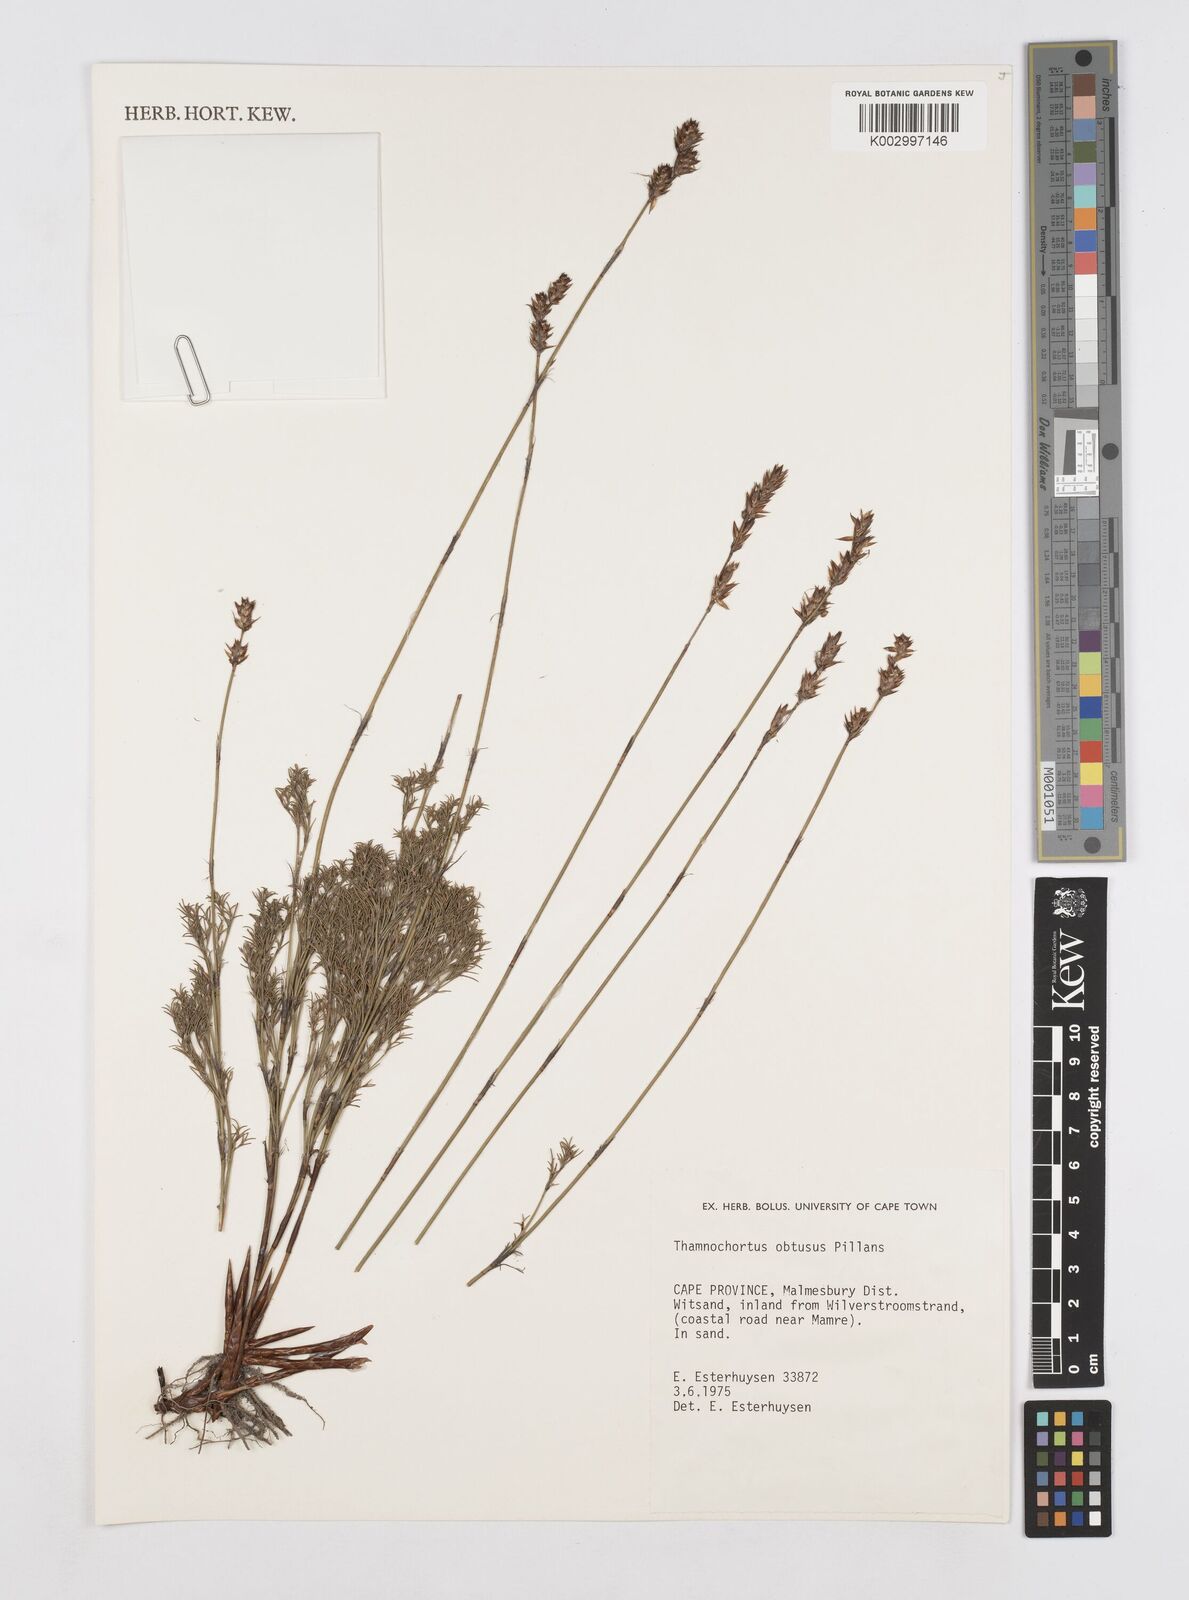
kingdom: Plantae
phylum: Tracheophyta
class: Liliopsida
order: Poales
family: Restionaceae
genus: Thamnochortus
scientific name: Thamnochortus obtusus
